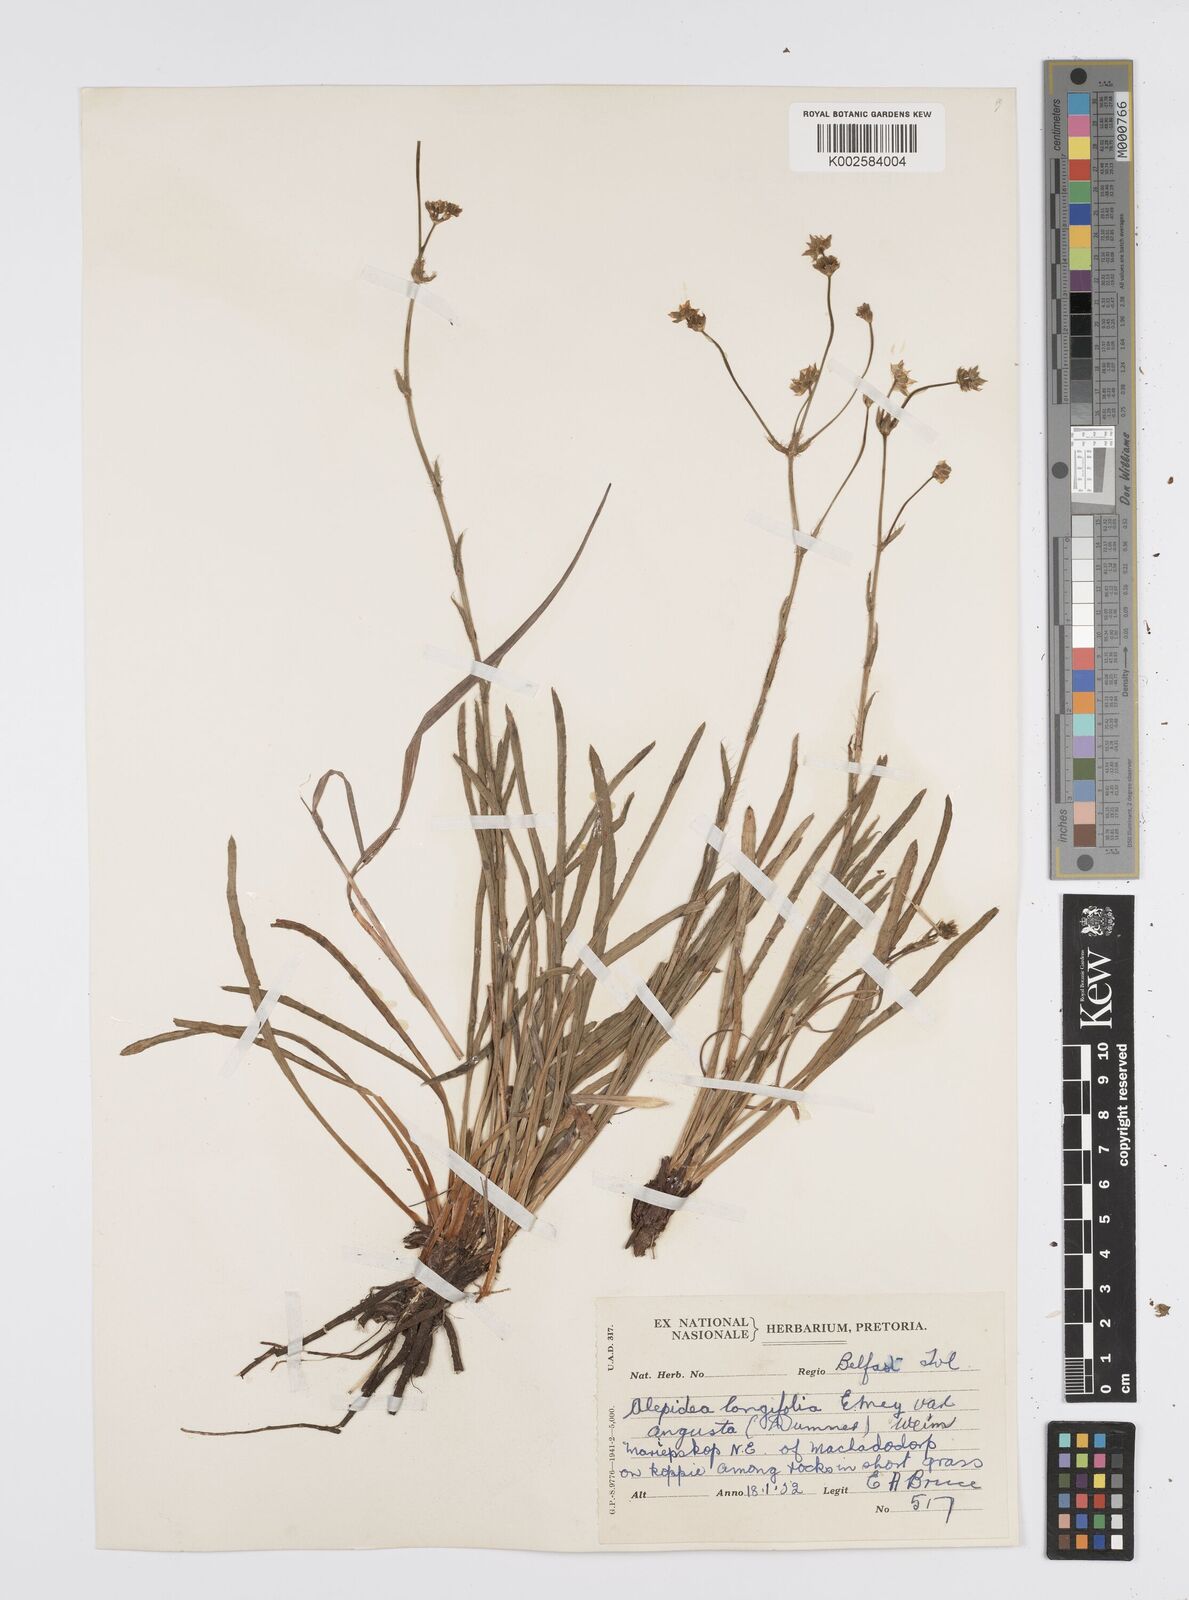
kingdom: Plantae
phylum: Tracheophyta
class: Magnoliopsida
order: Apiales
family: Apiaceae
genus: Alepidea
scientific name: Alepidea
